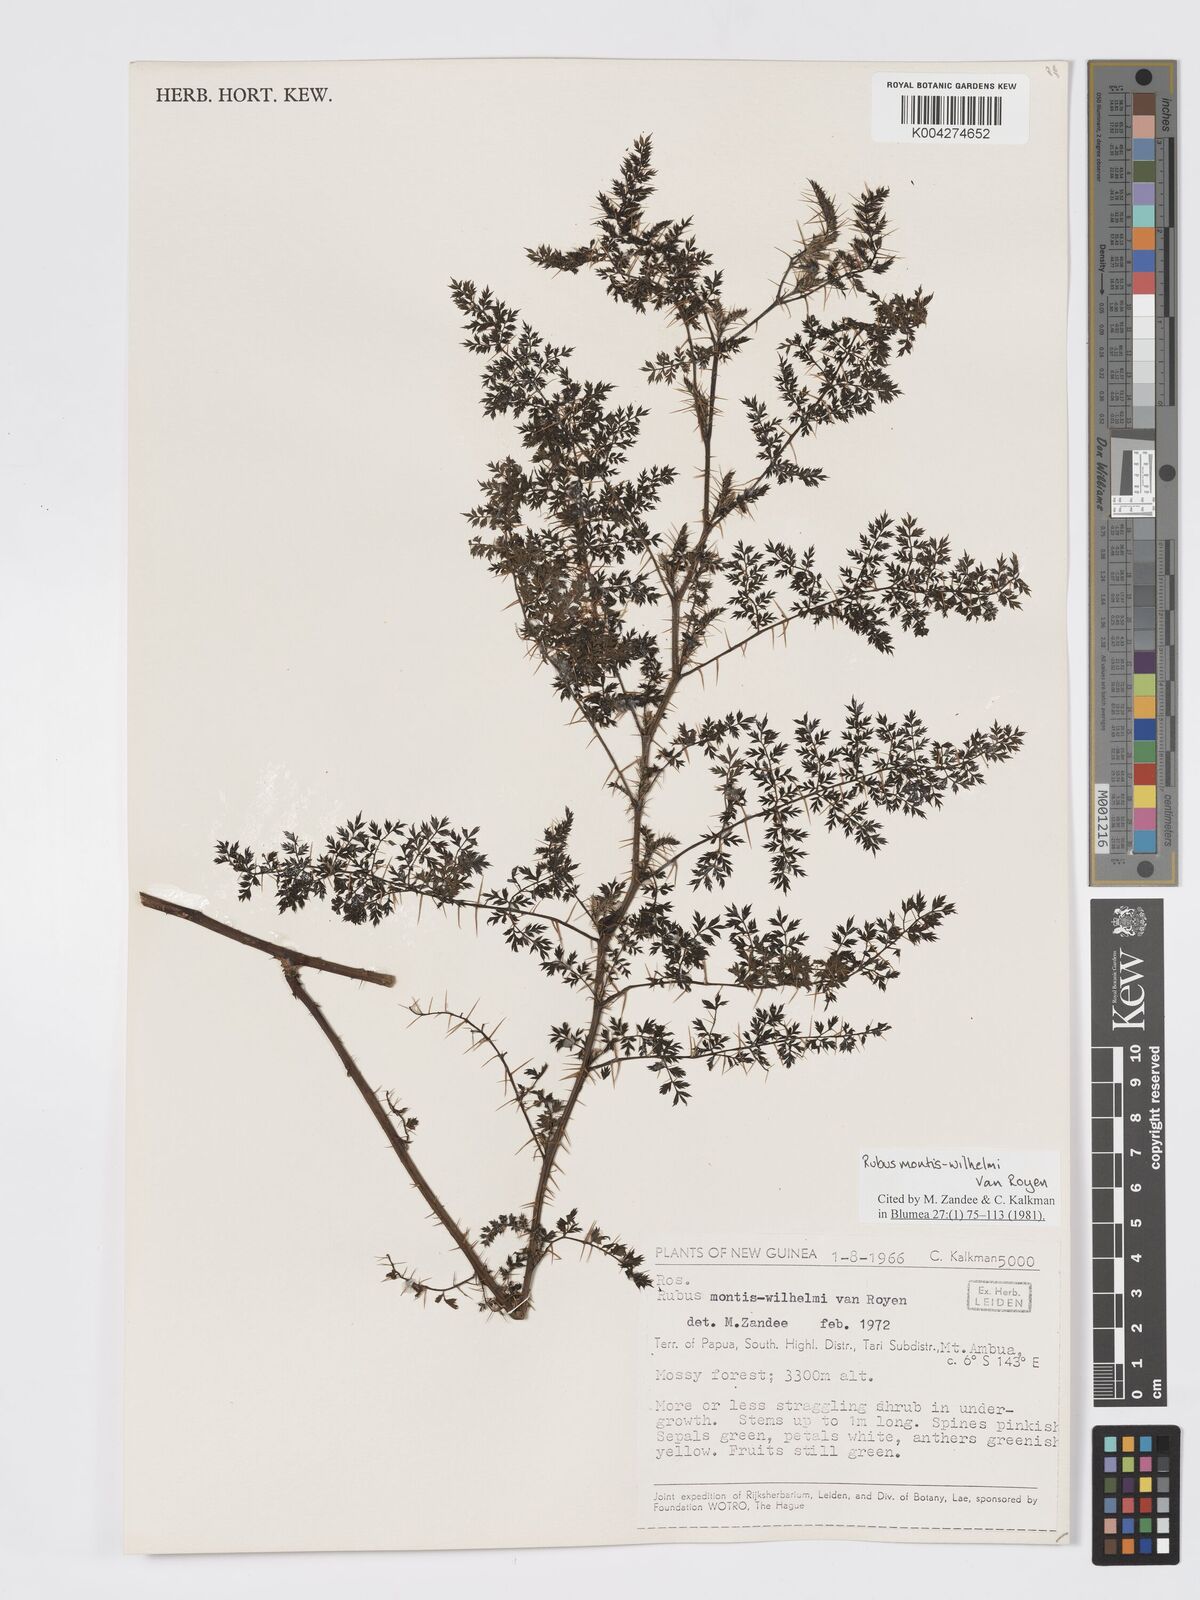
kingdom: Plantae
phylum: Tracheophyta
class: Magnoliopsida
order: Rosales
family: Rosaceae
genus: Rubus
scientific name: Rubus montis-wilhelmii
